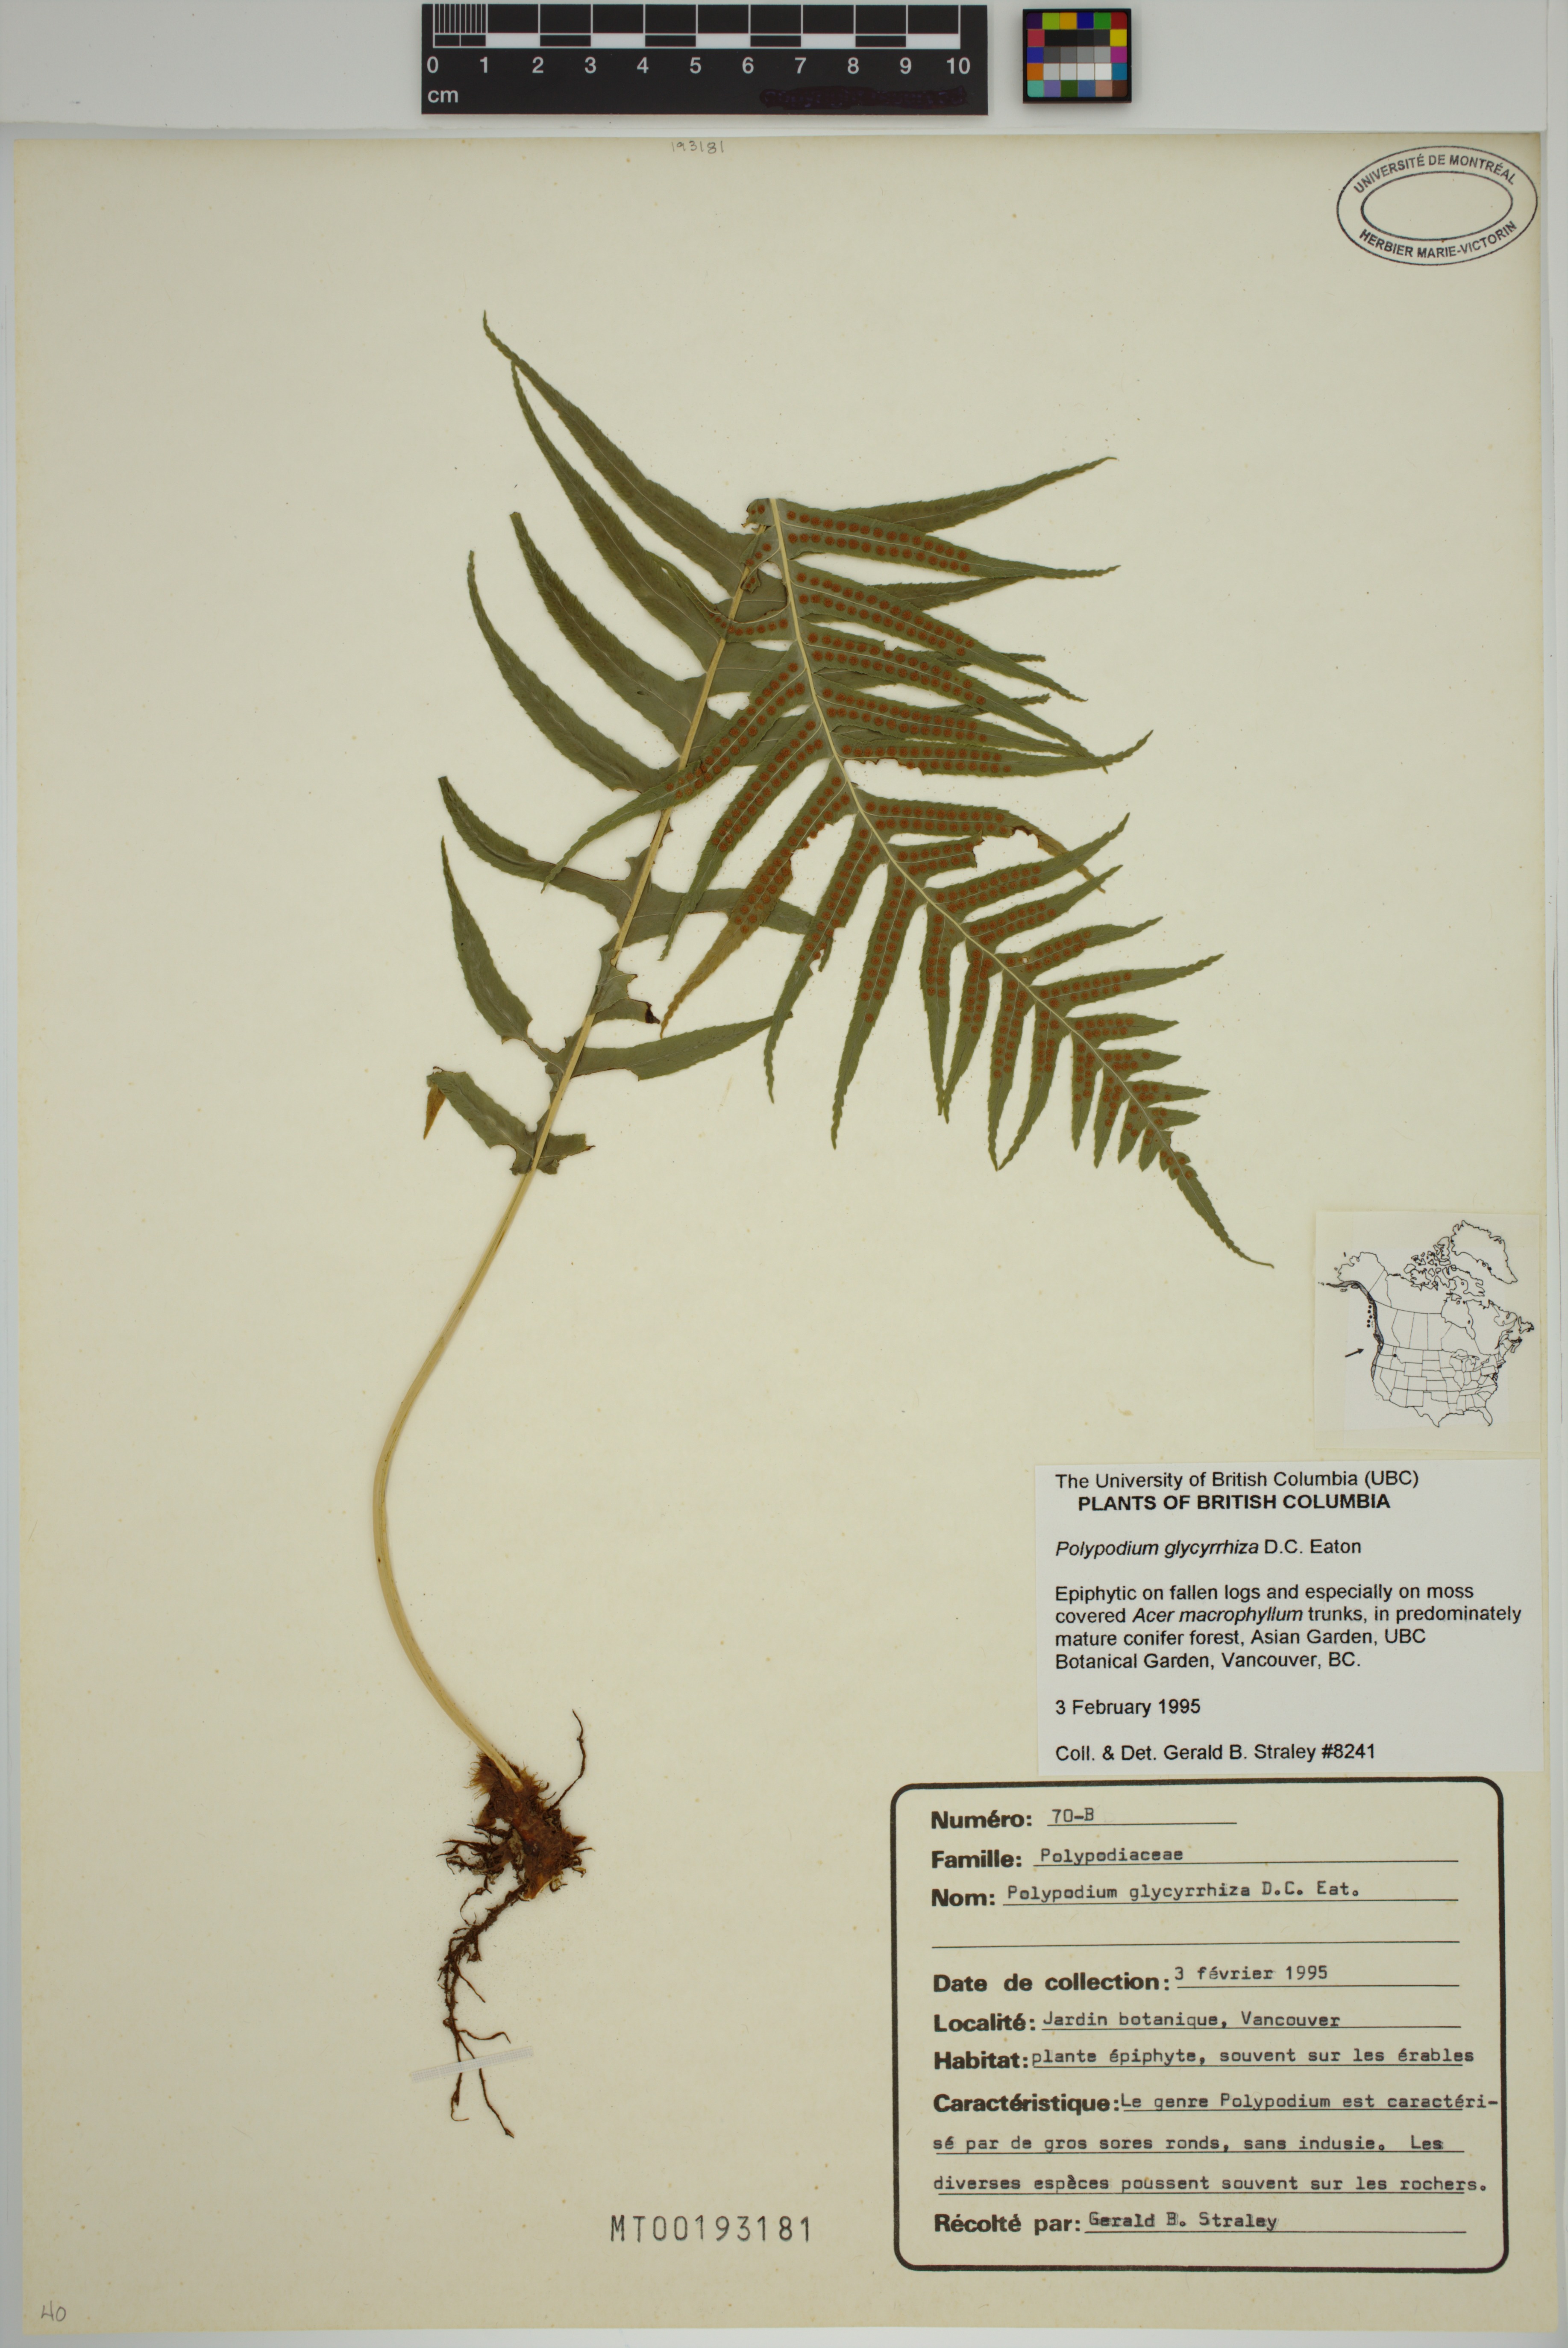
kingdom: Plantae
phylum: Tracheophyta
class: Polypodiopsida
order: Polypodiales
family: Polypodiaceae
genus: Polypodium
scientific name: Polypodium glycyrrhiza
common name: Licorice fern
